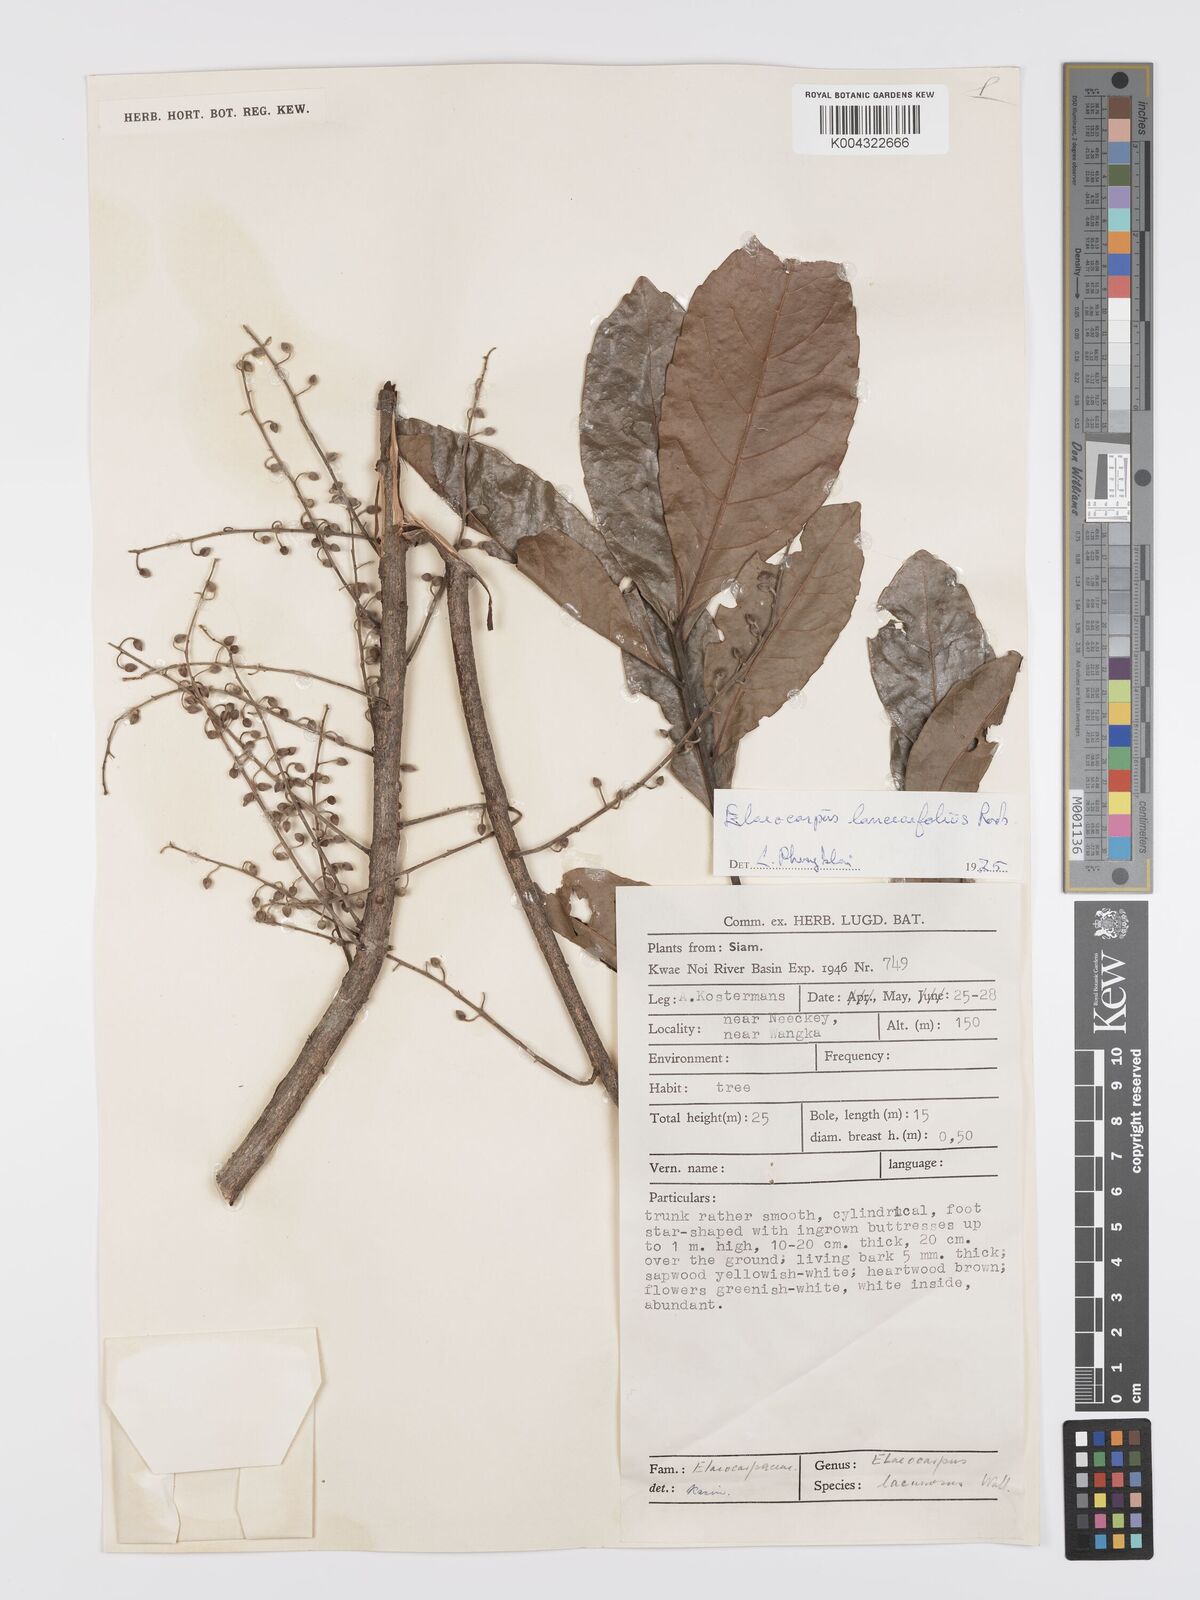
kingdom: Plantae
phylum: Tracheophyta
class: Magnoliopsida
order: Oxalidales
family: Elaeocarpaceae
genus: Elaeocarpus
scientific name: Elaeocarpus lanceifolius
